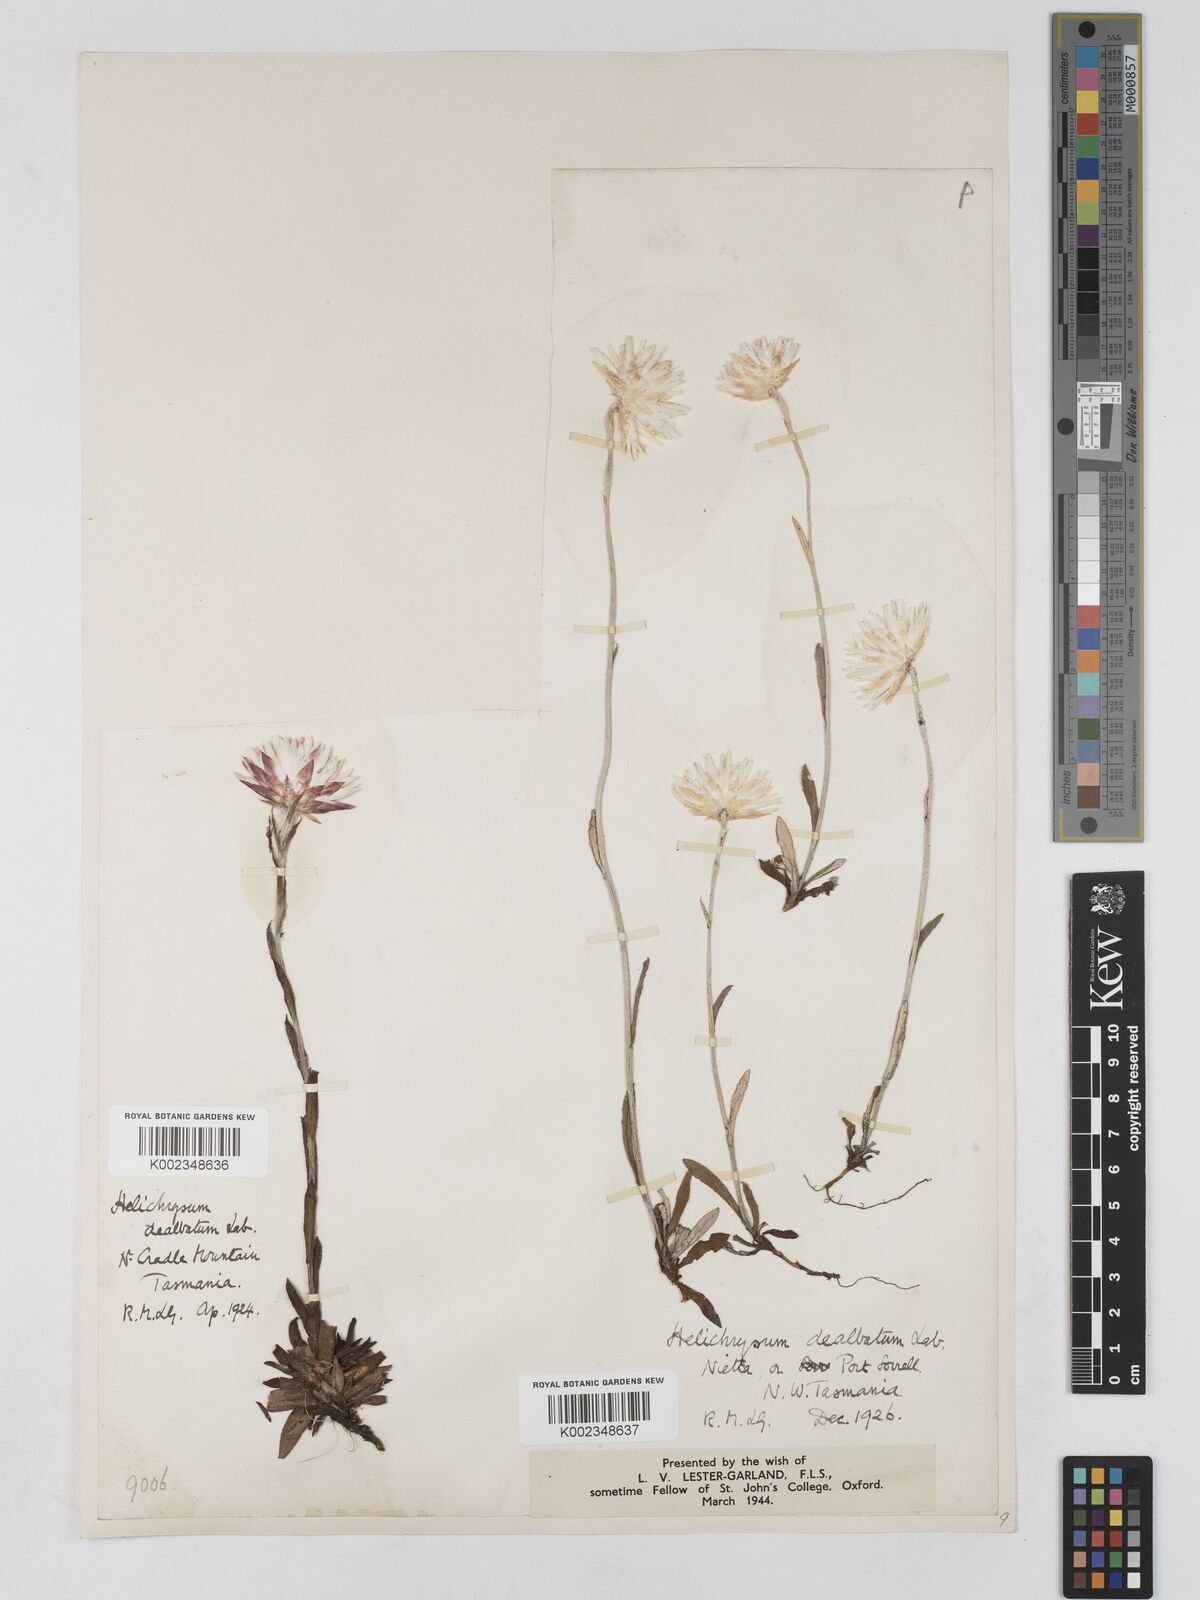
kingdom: Plantae
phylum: Tracheophyta
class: Magnoliopsida
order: Asterales
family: Asteraceae
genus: Argentipallium
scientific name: Argentipallium dealbatum
